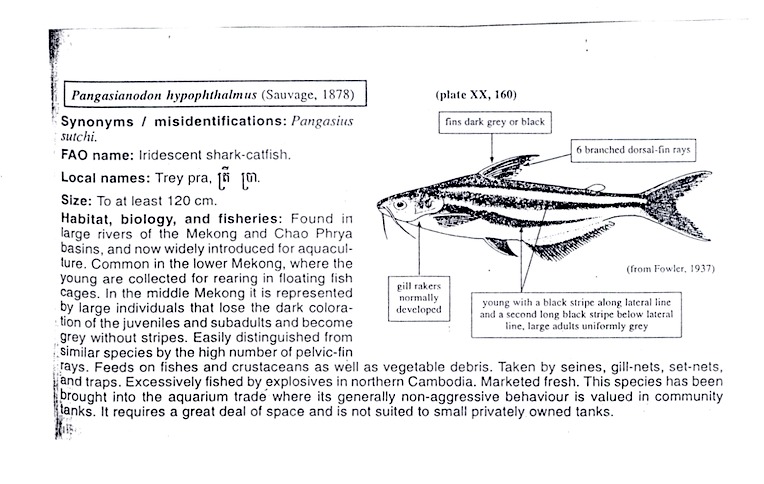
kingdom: Animalia
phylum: Chordata
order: Siluriformes
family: Pangasiidae
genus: Pangasianodon
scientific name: Pangasianodon hypophthalmus
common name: Striped catfish
